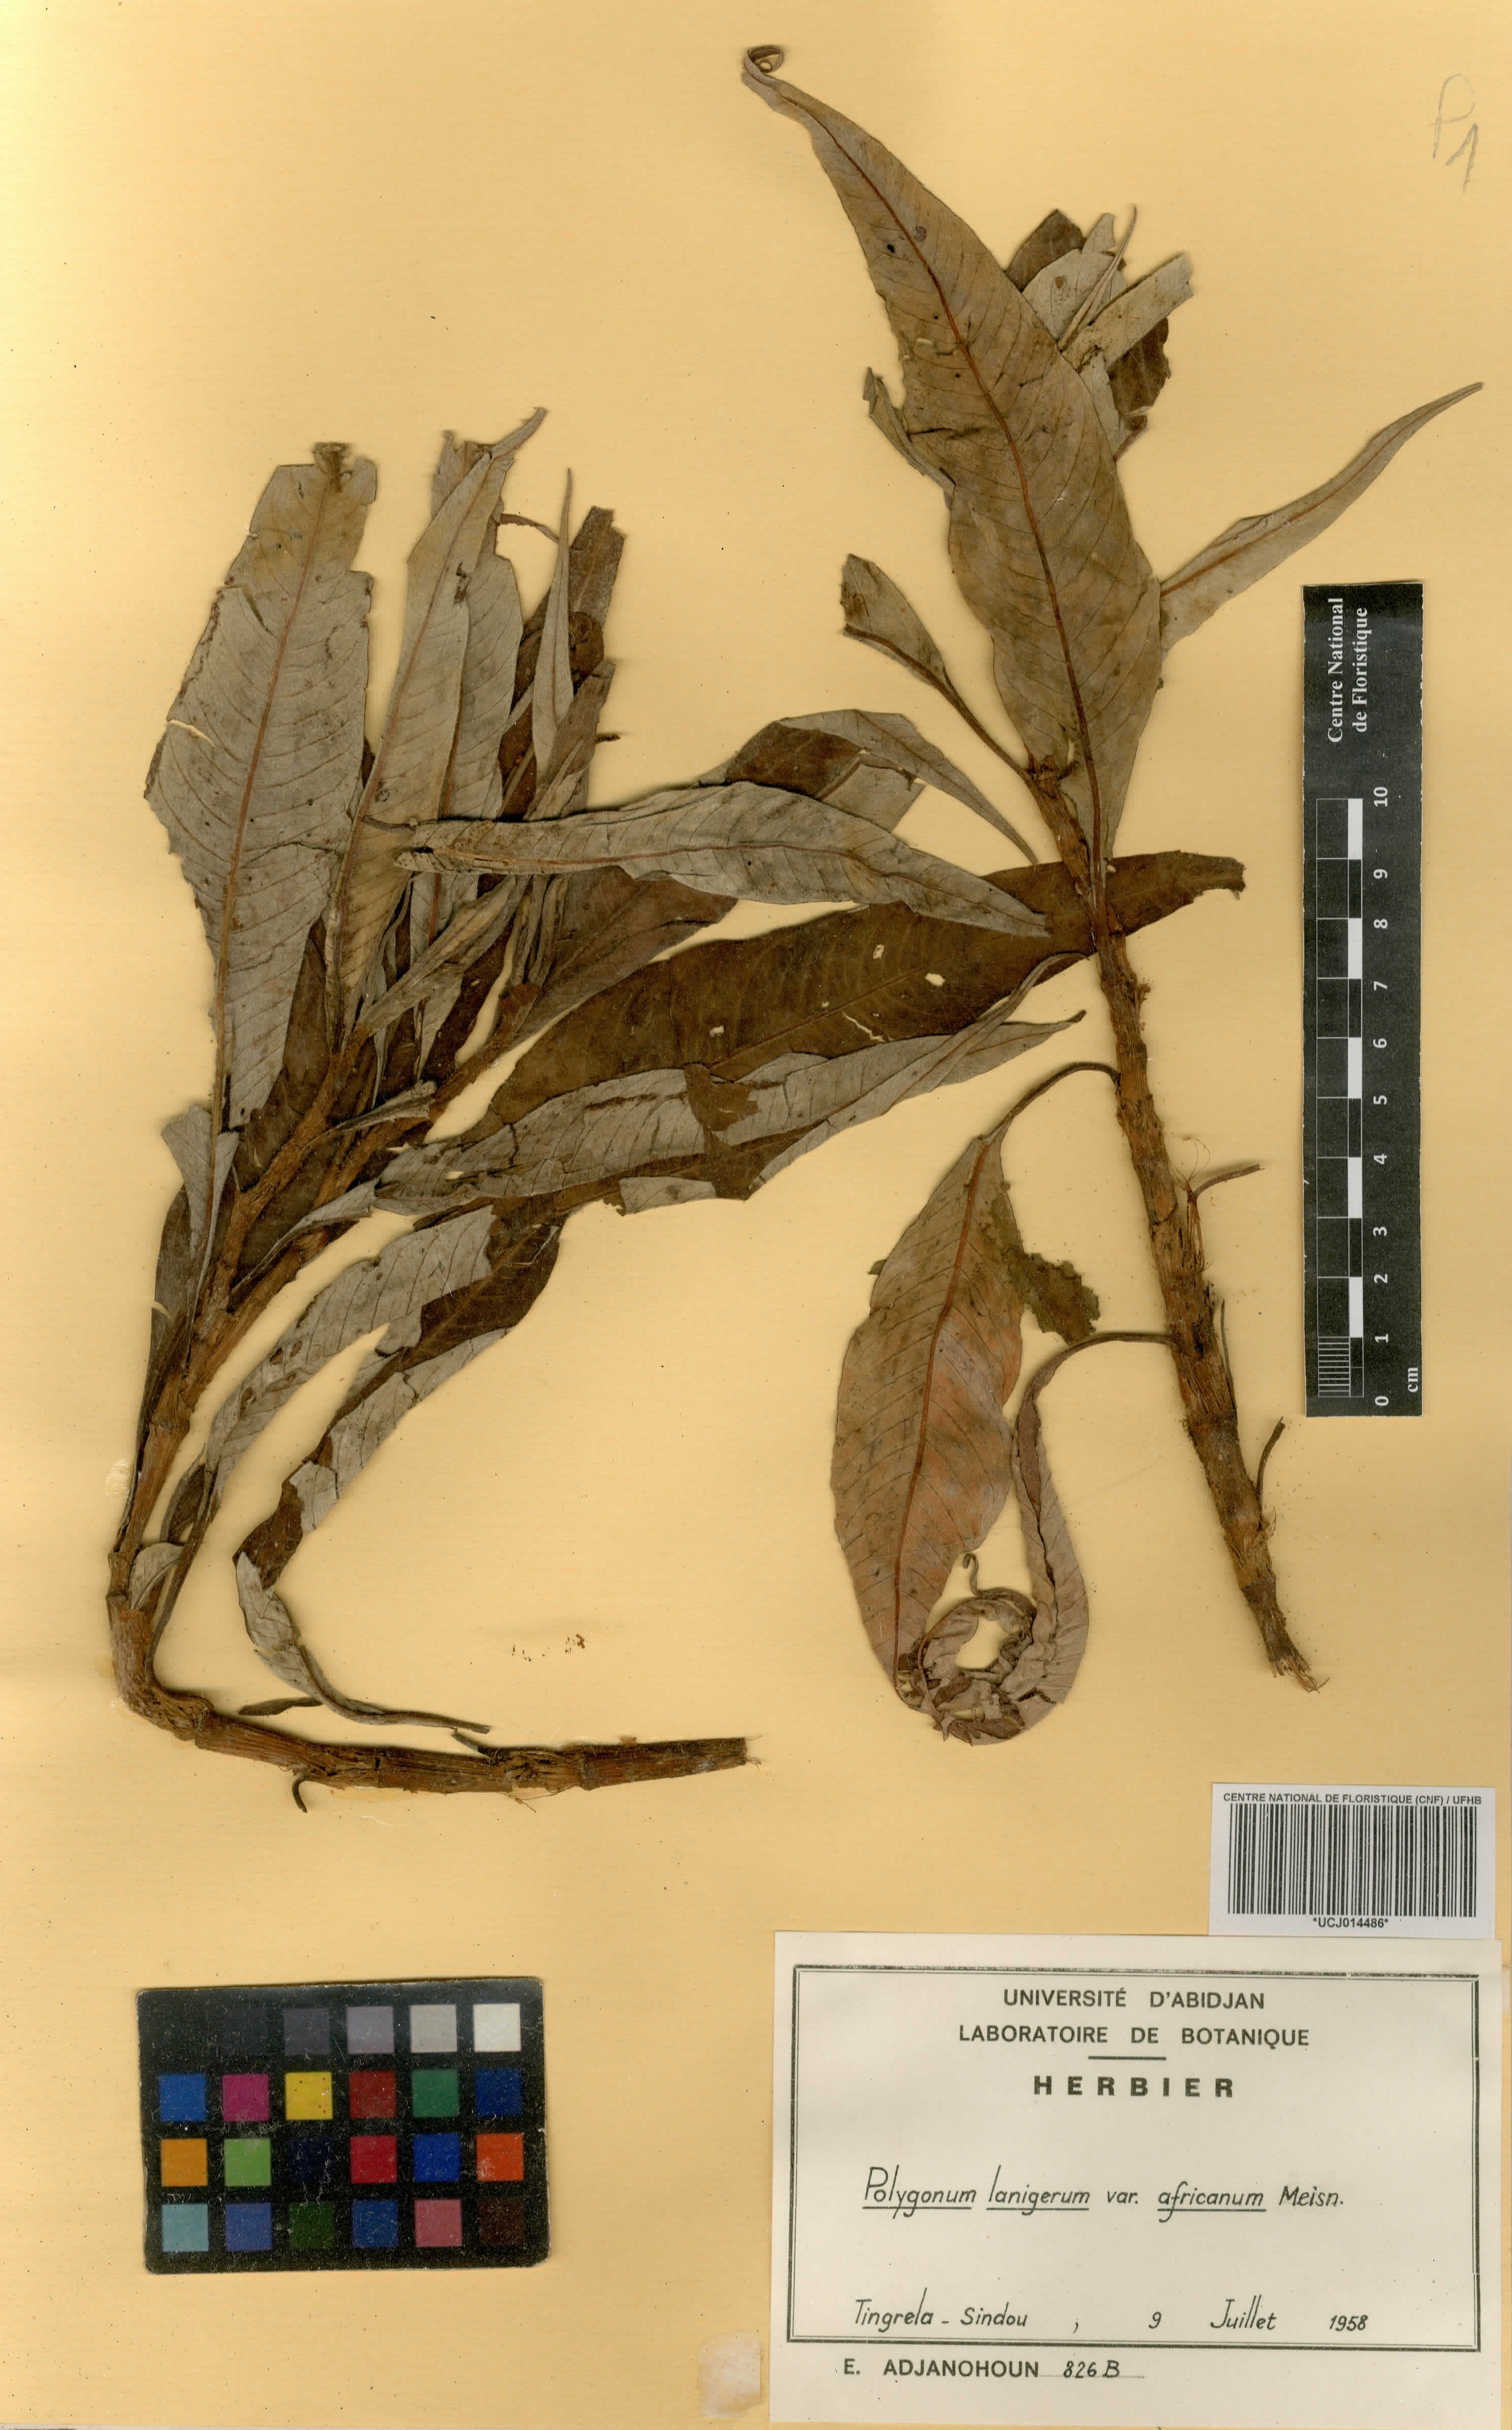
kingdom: Plantae
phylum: Tracheophyta
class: Magnoliopsida
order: Caryophyllales
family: Polygonaceae
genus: Persicaria
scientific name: Persicaria senegalensis
